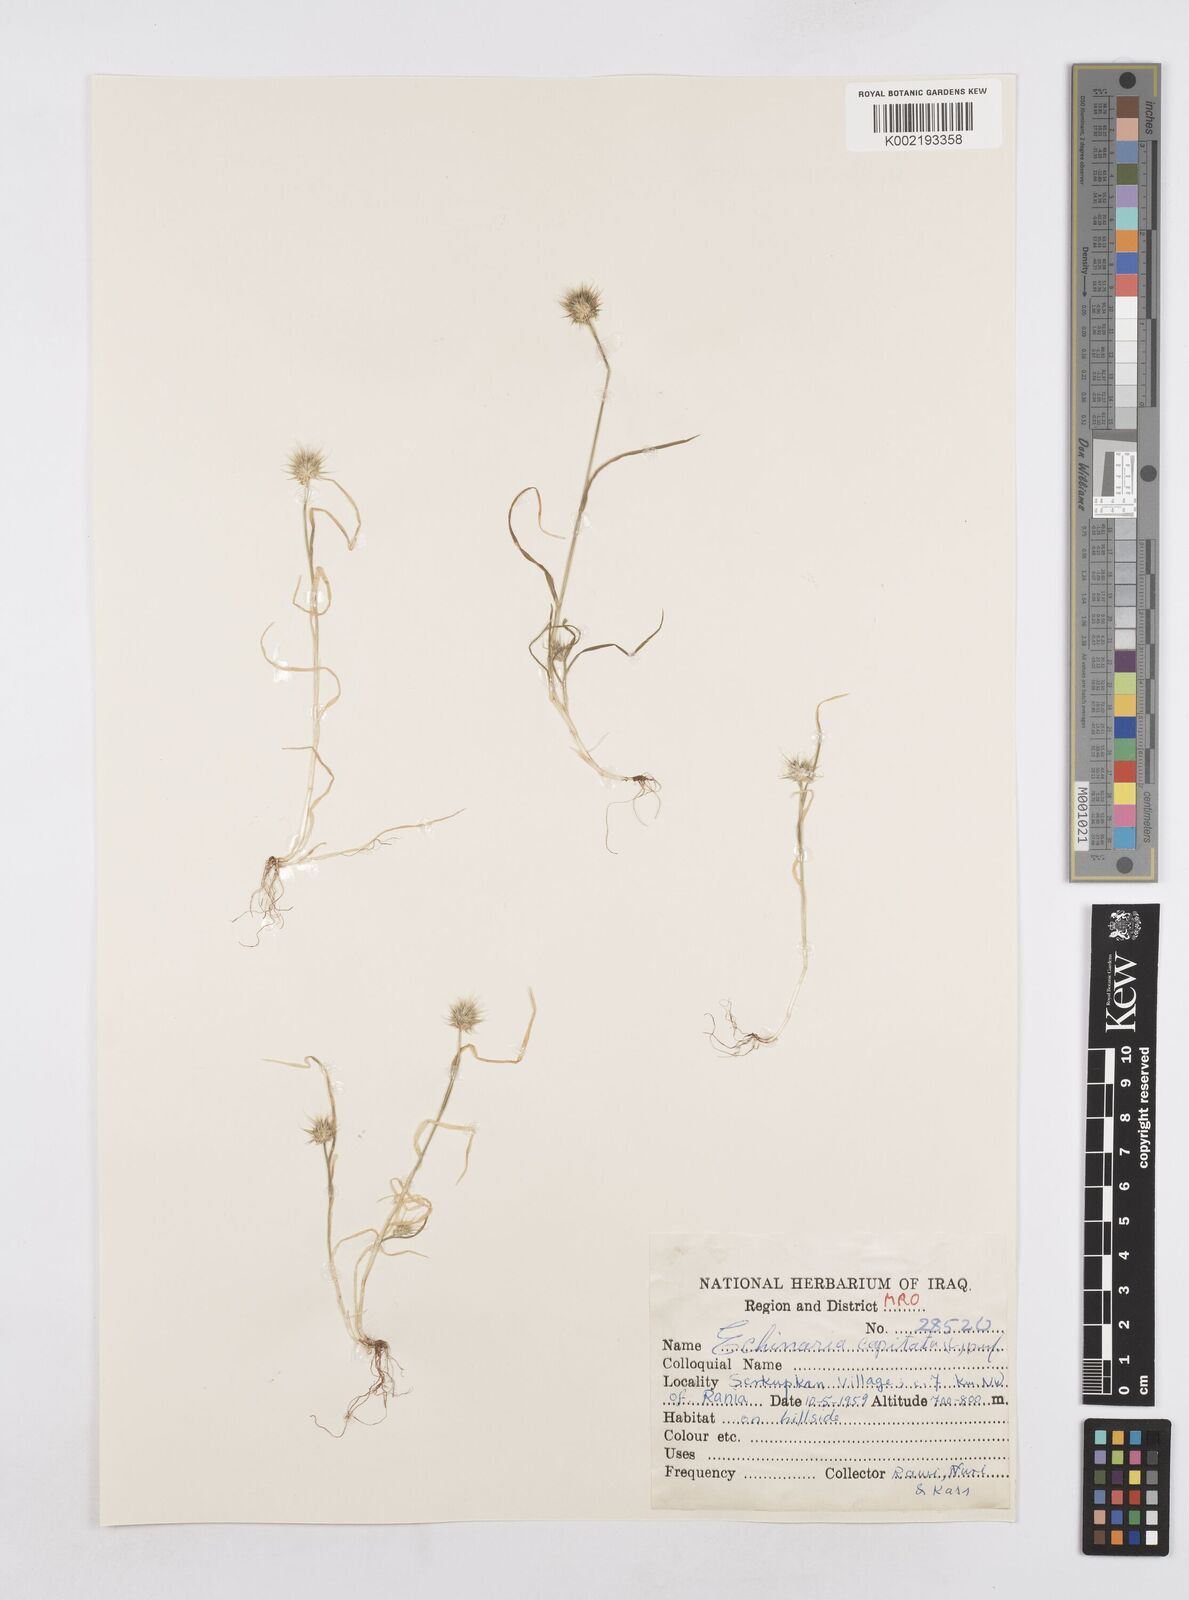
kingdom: Plantae
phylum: Tracheophyta
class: Liliopsida
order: Poales
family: Poaceae
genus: Echinaria
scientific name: Echinaria capitata
